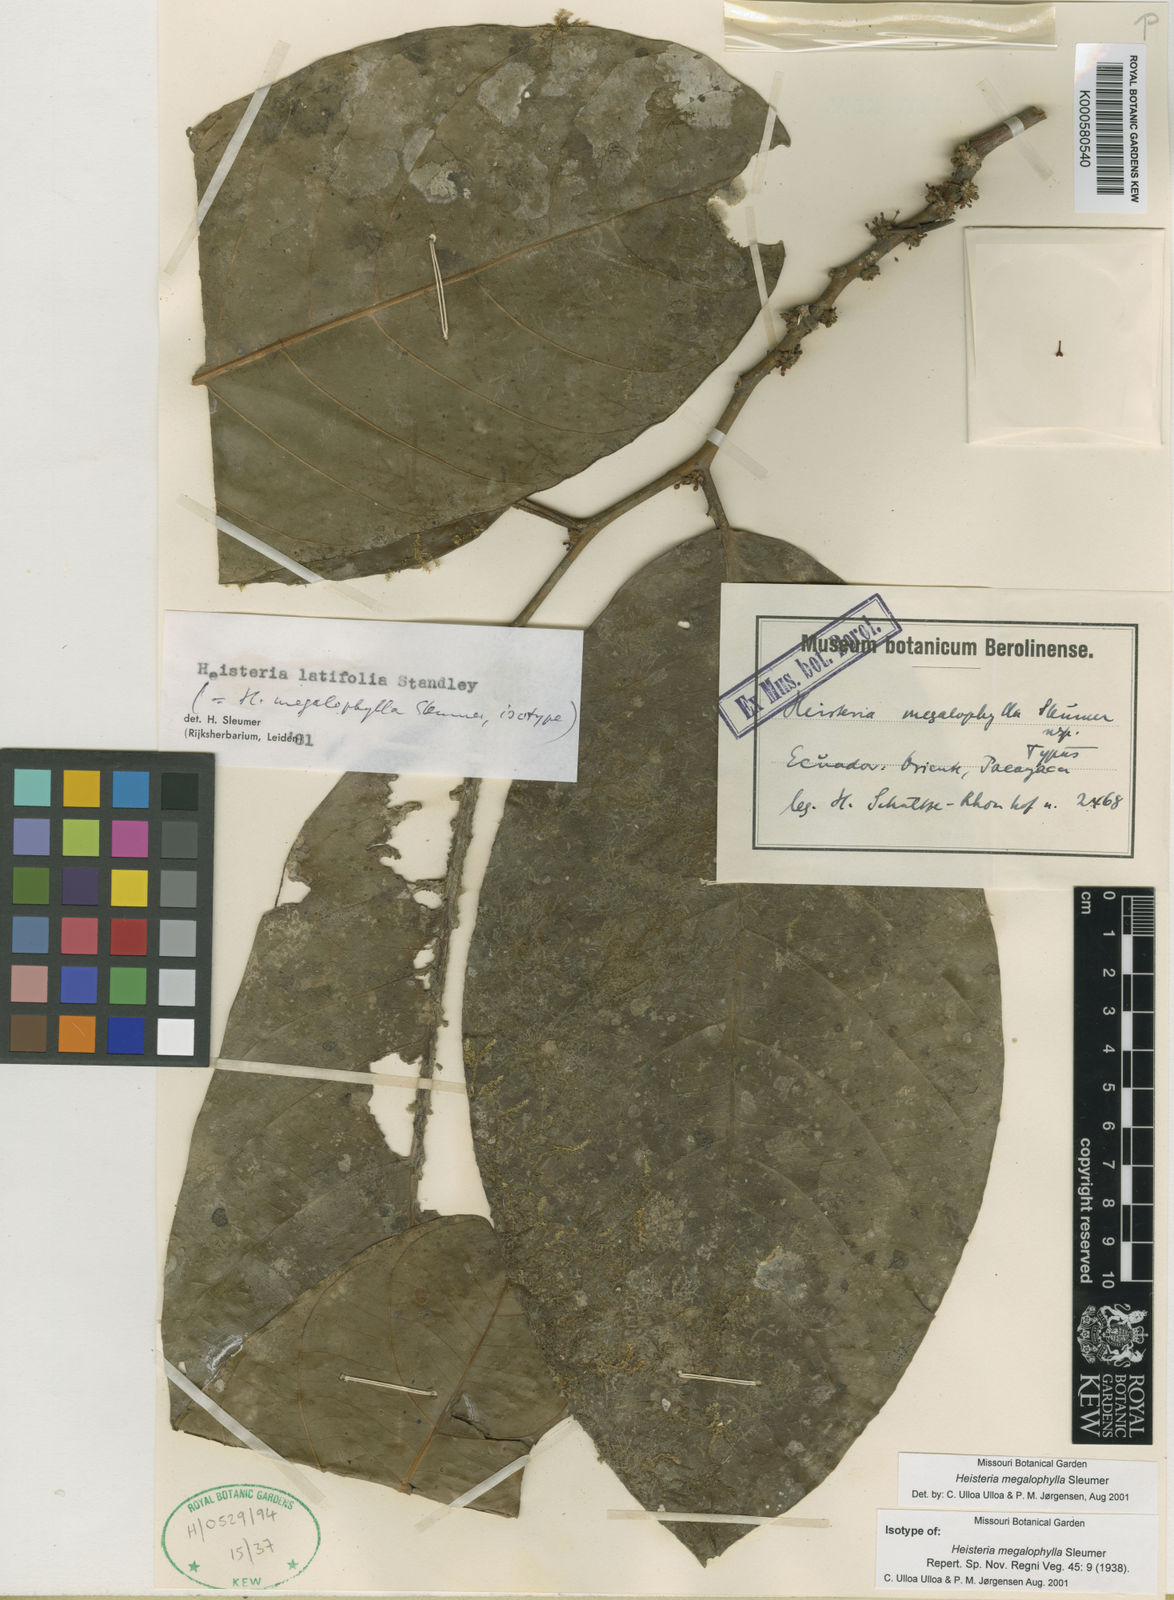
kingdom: Plantae
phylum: Tracheophyta
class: Magnoliopsida
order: Santalales
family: Erythropalaceae
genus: Heisteria
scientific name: Heisteria latifolia
